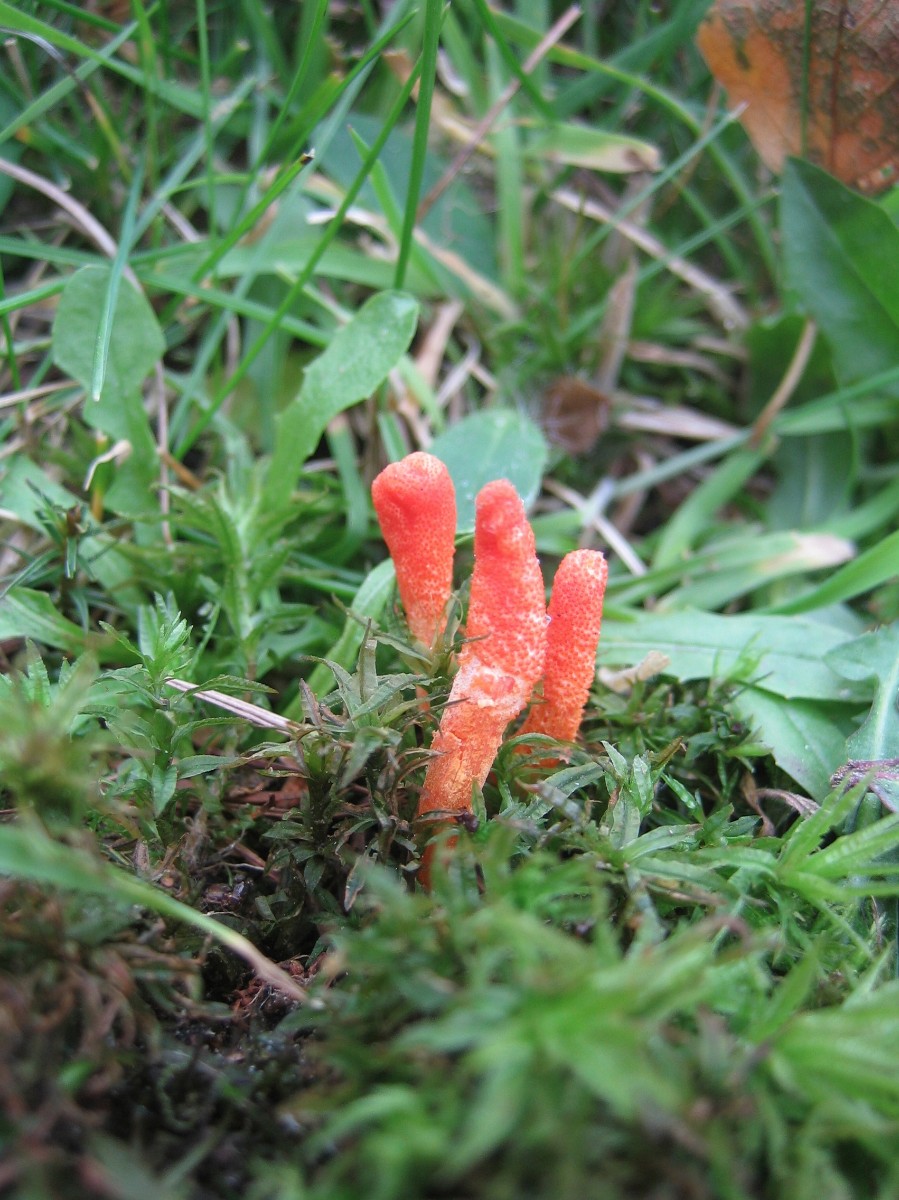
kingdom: Fungi
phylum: Ascomycota
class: Sordariomycetes
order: Hypocreales
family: Cordycipitaceae
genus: Cordyceps
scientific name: Cordyceps militaris
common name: puppe-snyltekølle
